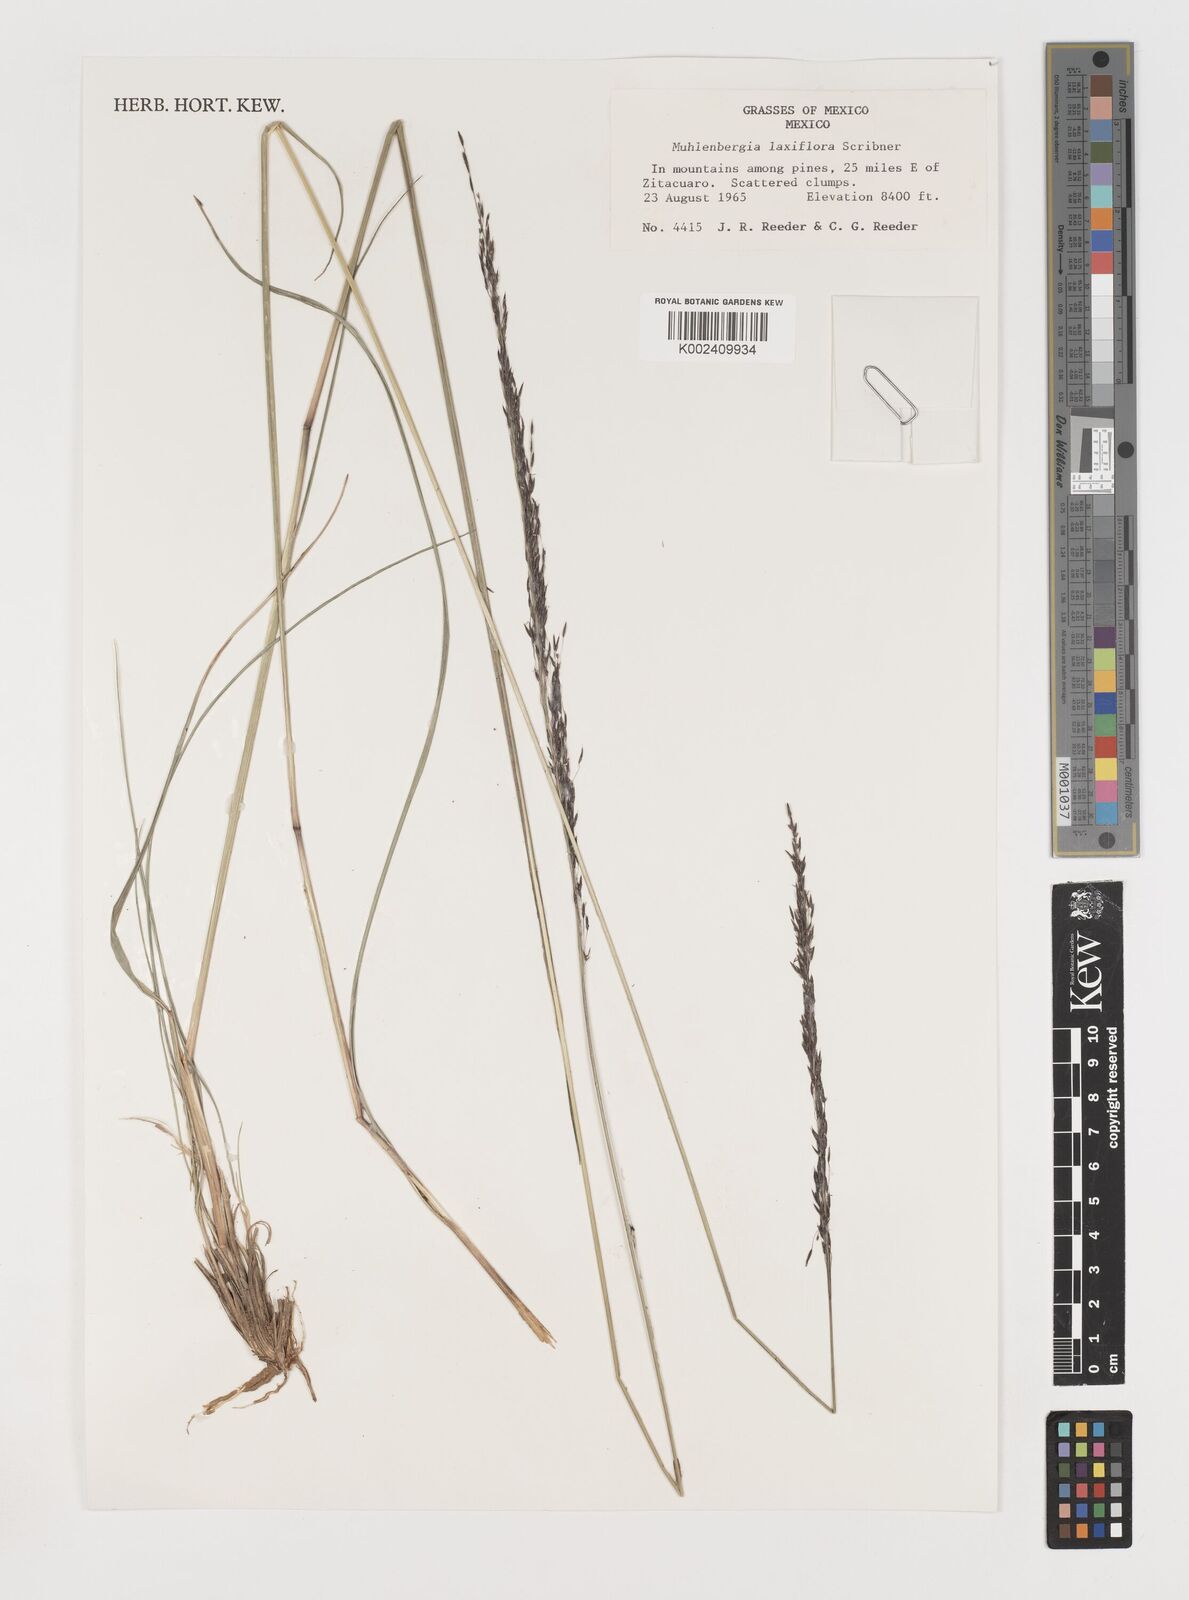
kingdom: Plantae
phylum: Tracheophyta
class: Liliopsida
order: Poales
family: Poaceae
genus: Muhlenbergia
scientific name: Muhlenbergia mucronata
